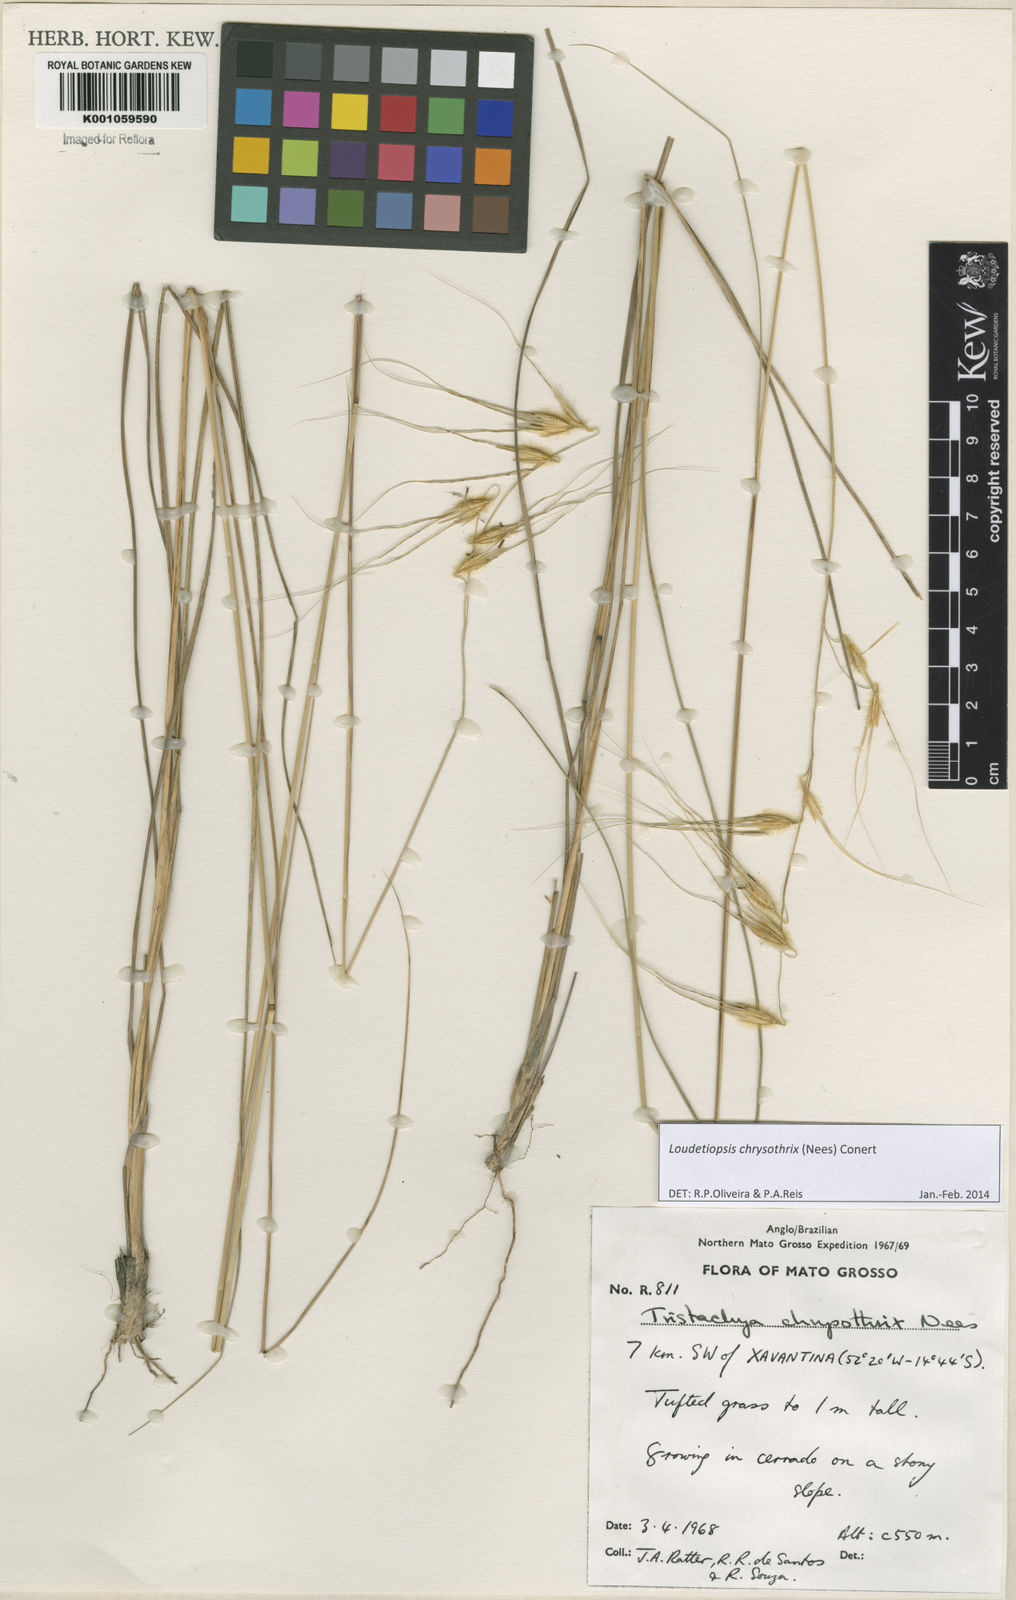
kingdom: Plantae
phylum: Tracheophyta
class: Liliopsida
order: Poales
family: Poaceae
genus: Loudetiopsis
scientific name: Loudetiopsis chrysothrix
